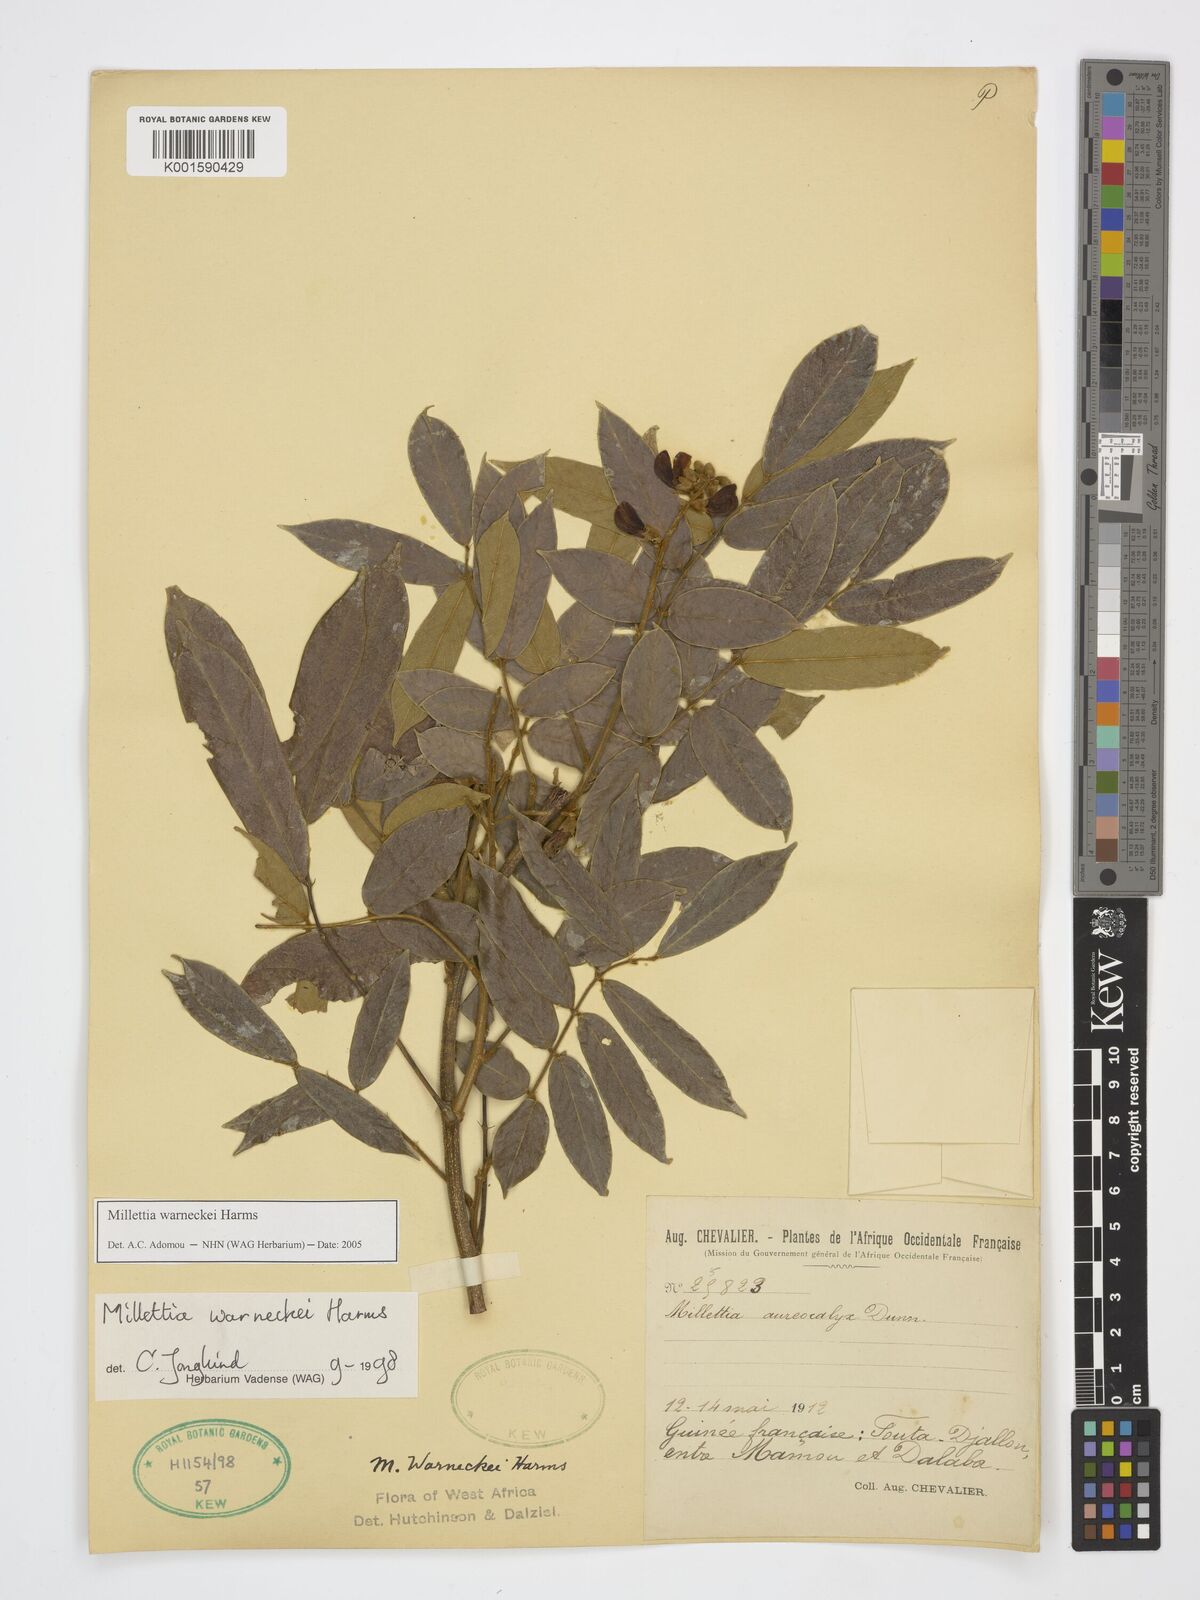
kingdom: Plantae
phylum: Tracheophyta
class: Magnoliopsida
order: Fabales
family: Fabaceae
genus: Millettia
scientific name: Millettia warneckei
